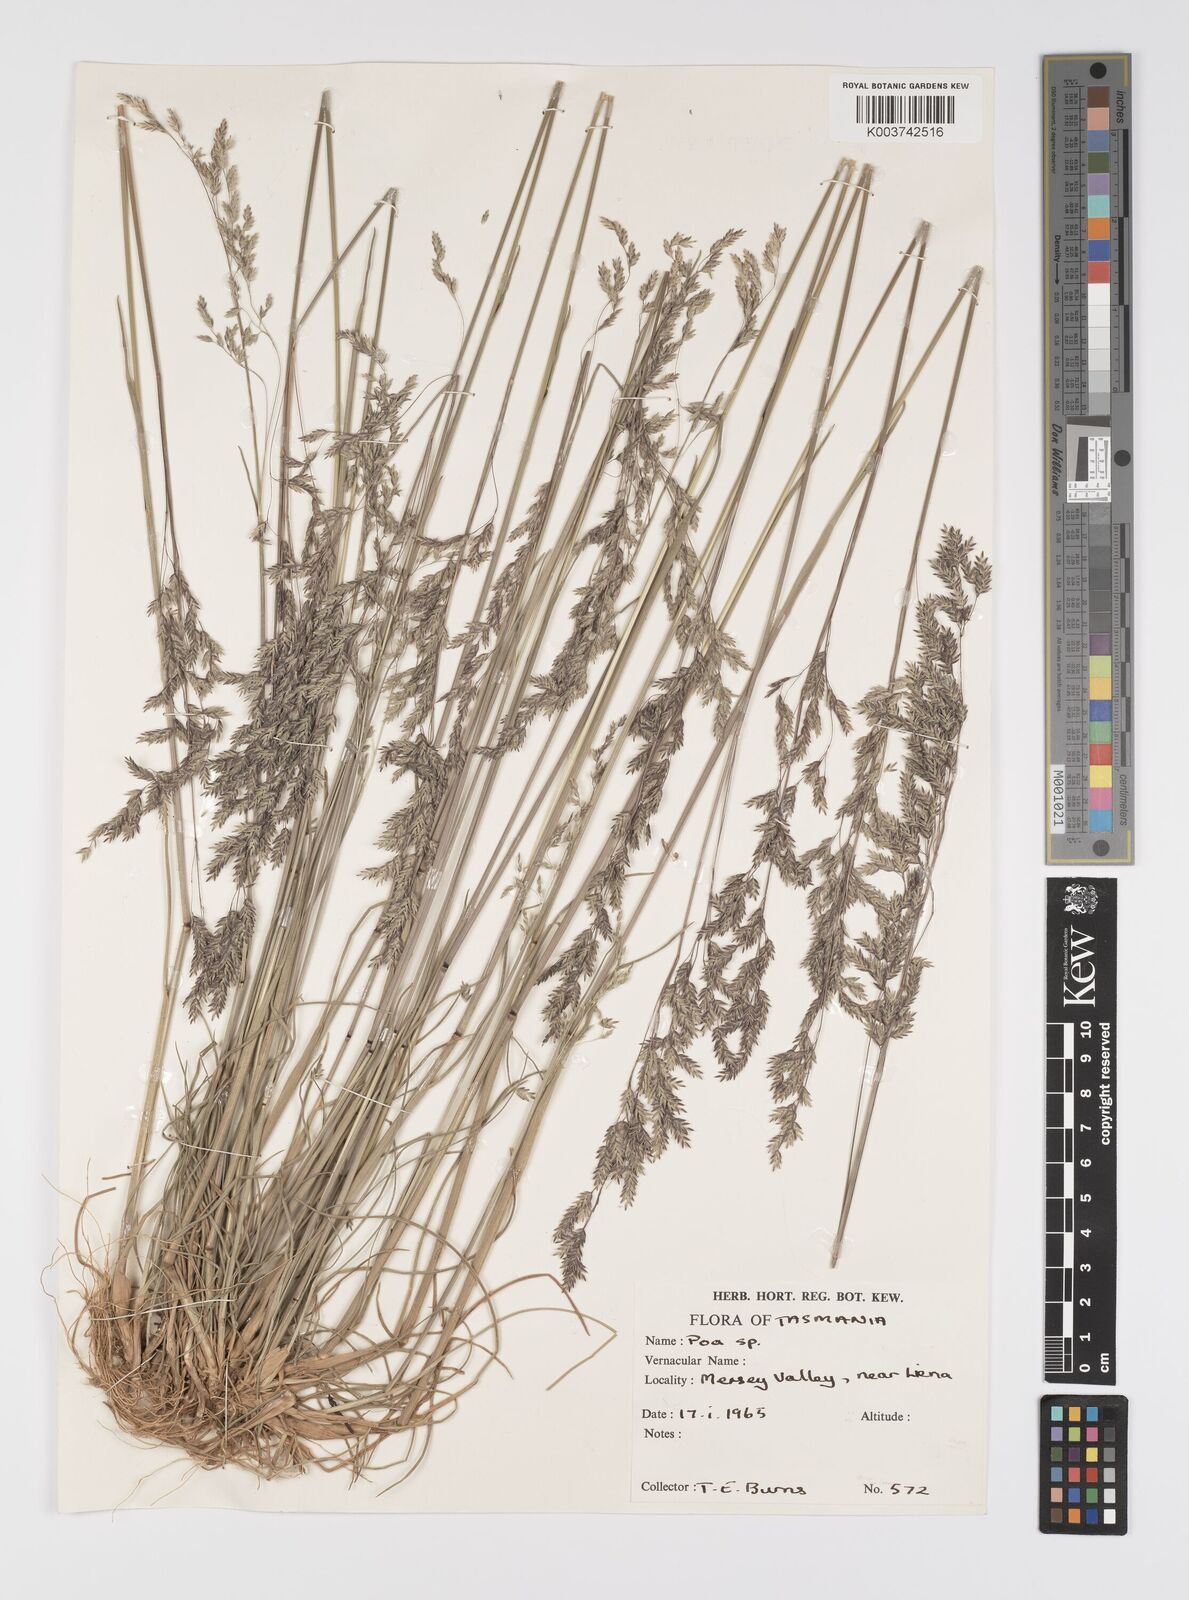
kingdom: Plantae
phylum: Tracheophyta
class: Liliopsida
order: Poales
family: Poaceae
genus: Poa
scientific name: Poa
